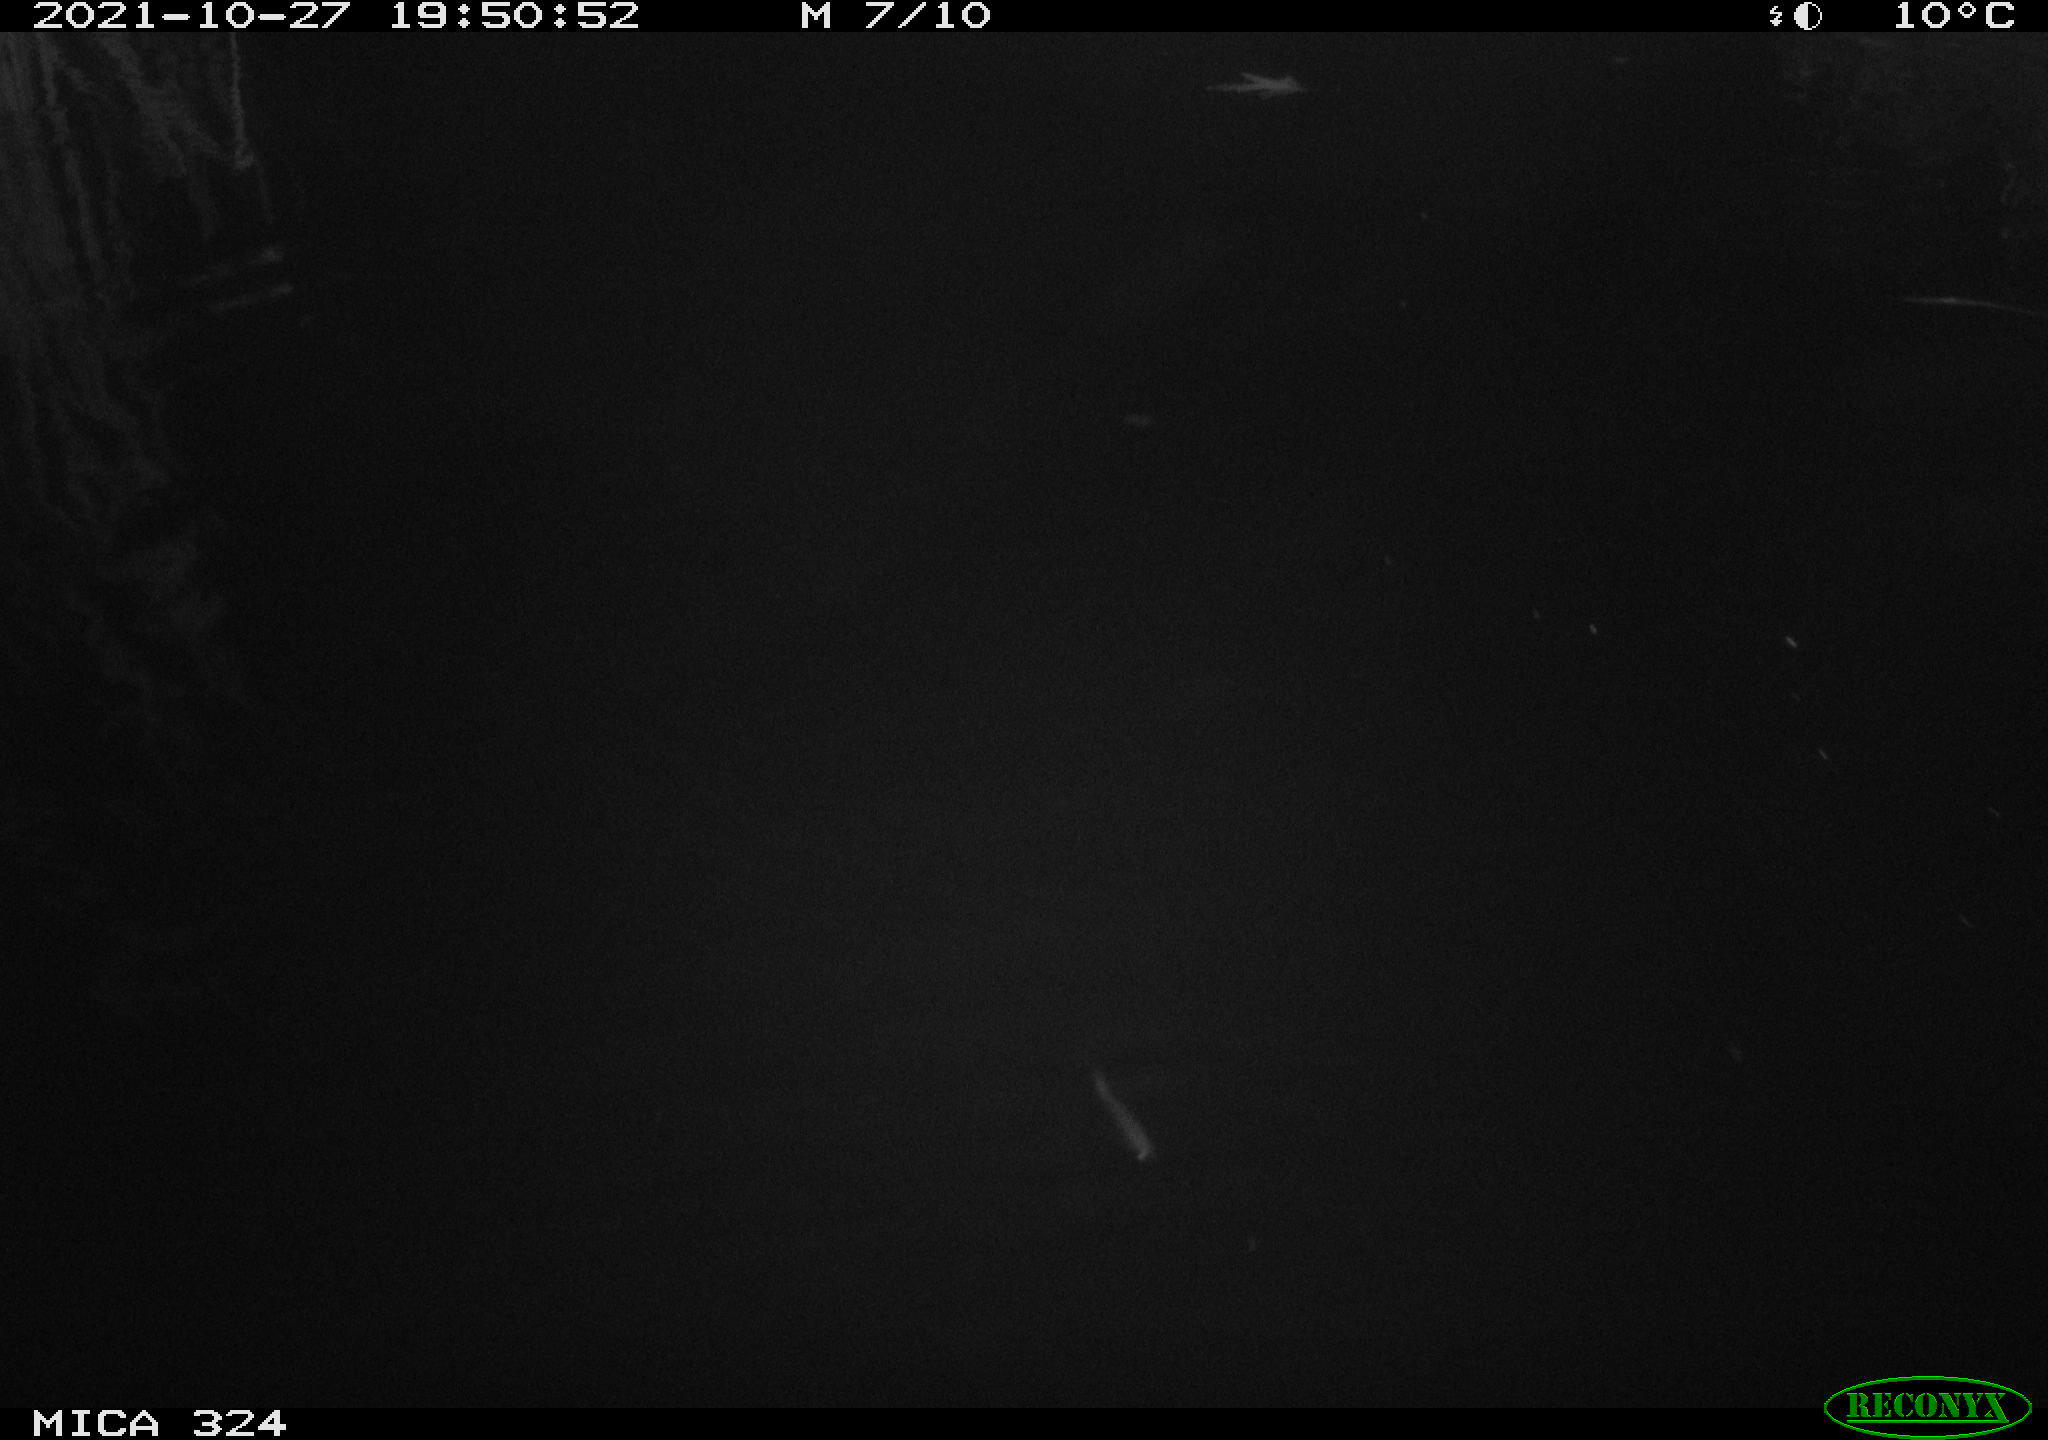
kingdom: Animalia
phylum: Chordata
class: Mammalia
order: Rodentia
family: Cricetidae
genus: Ondatra
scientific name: Ondatra zibethicus
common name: Muskrat
